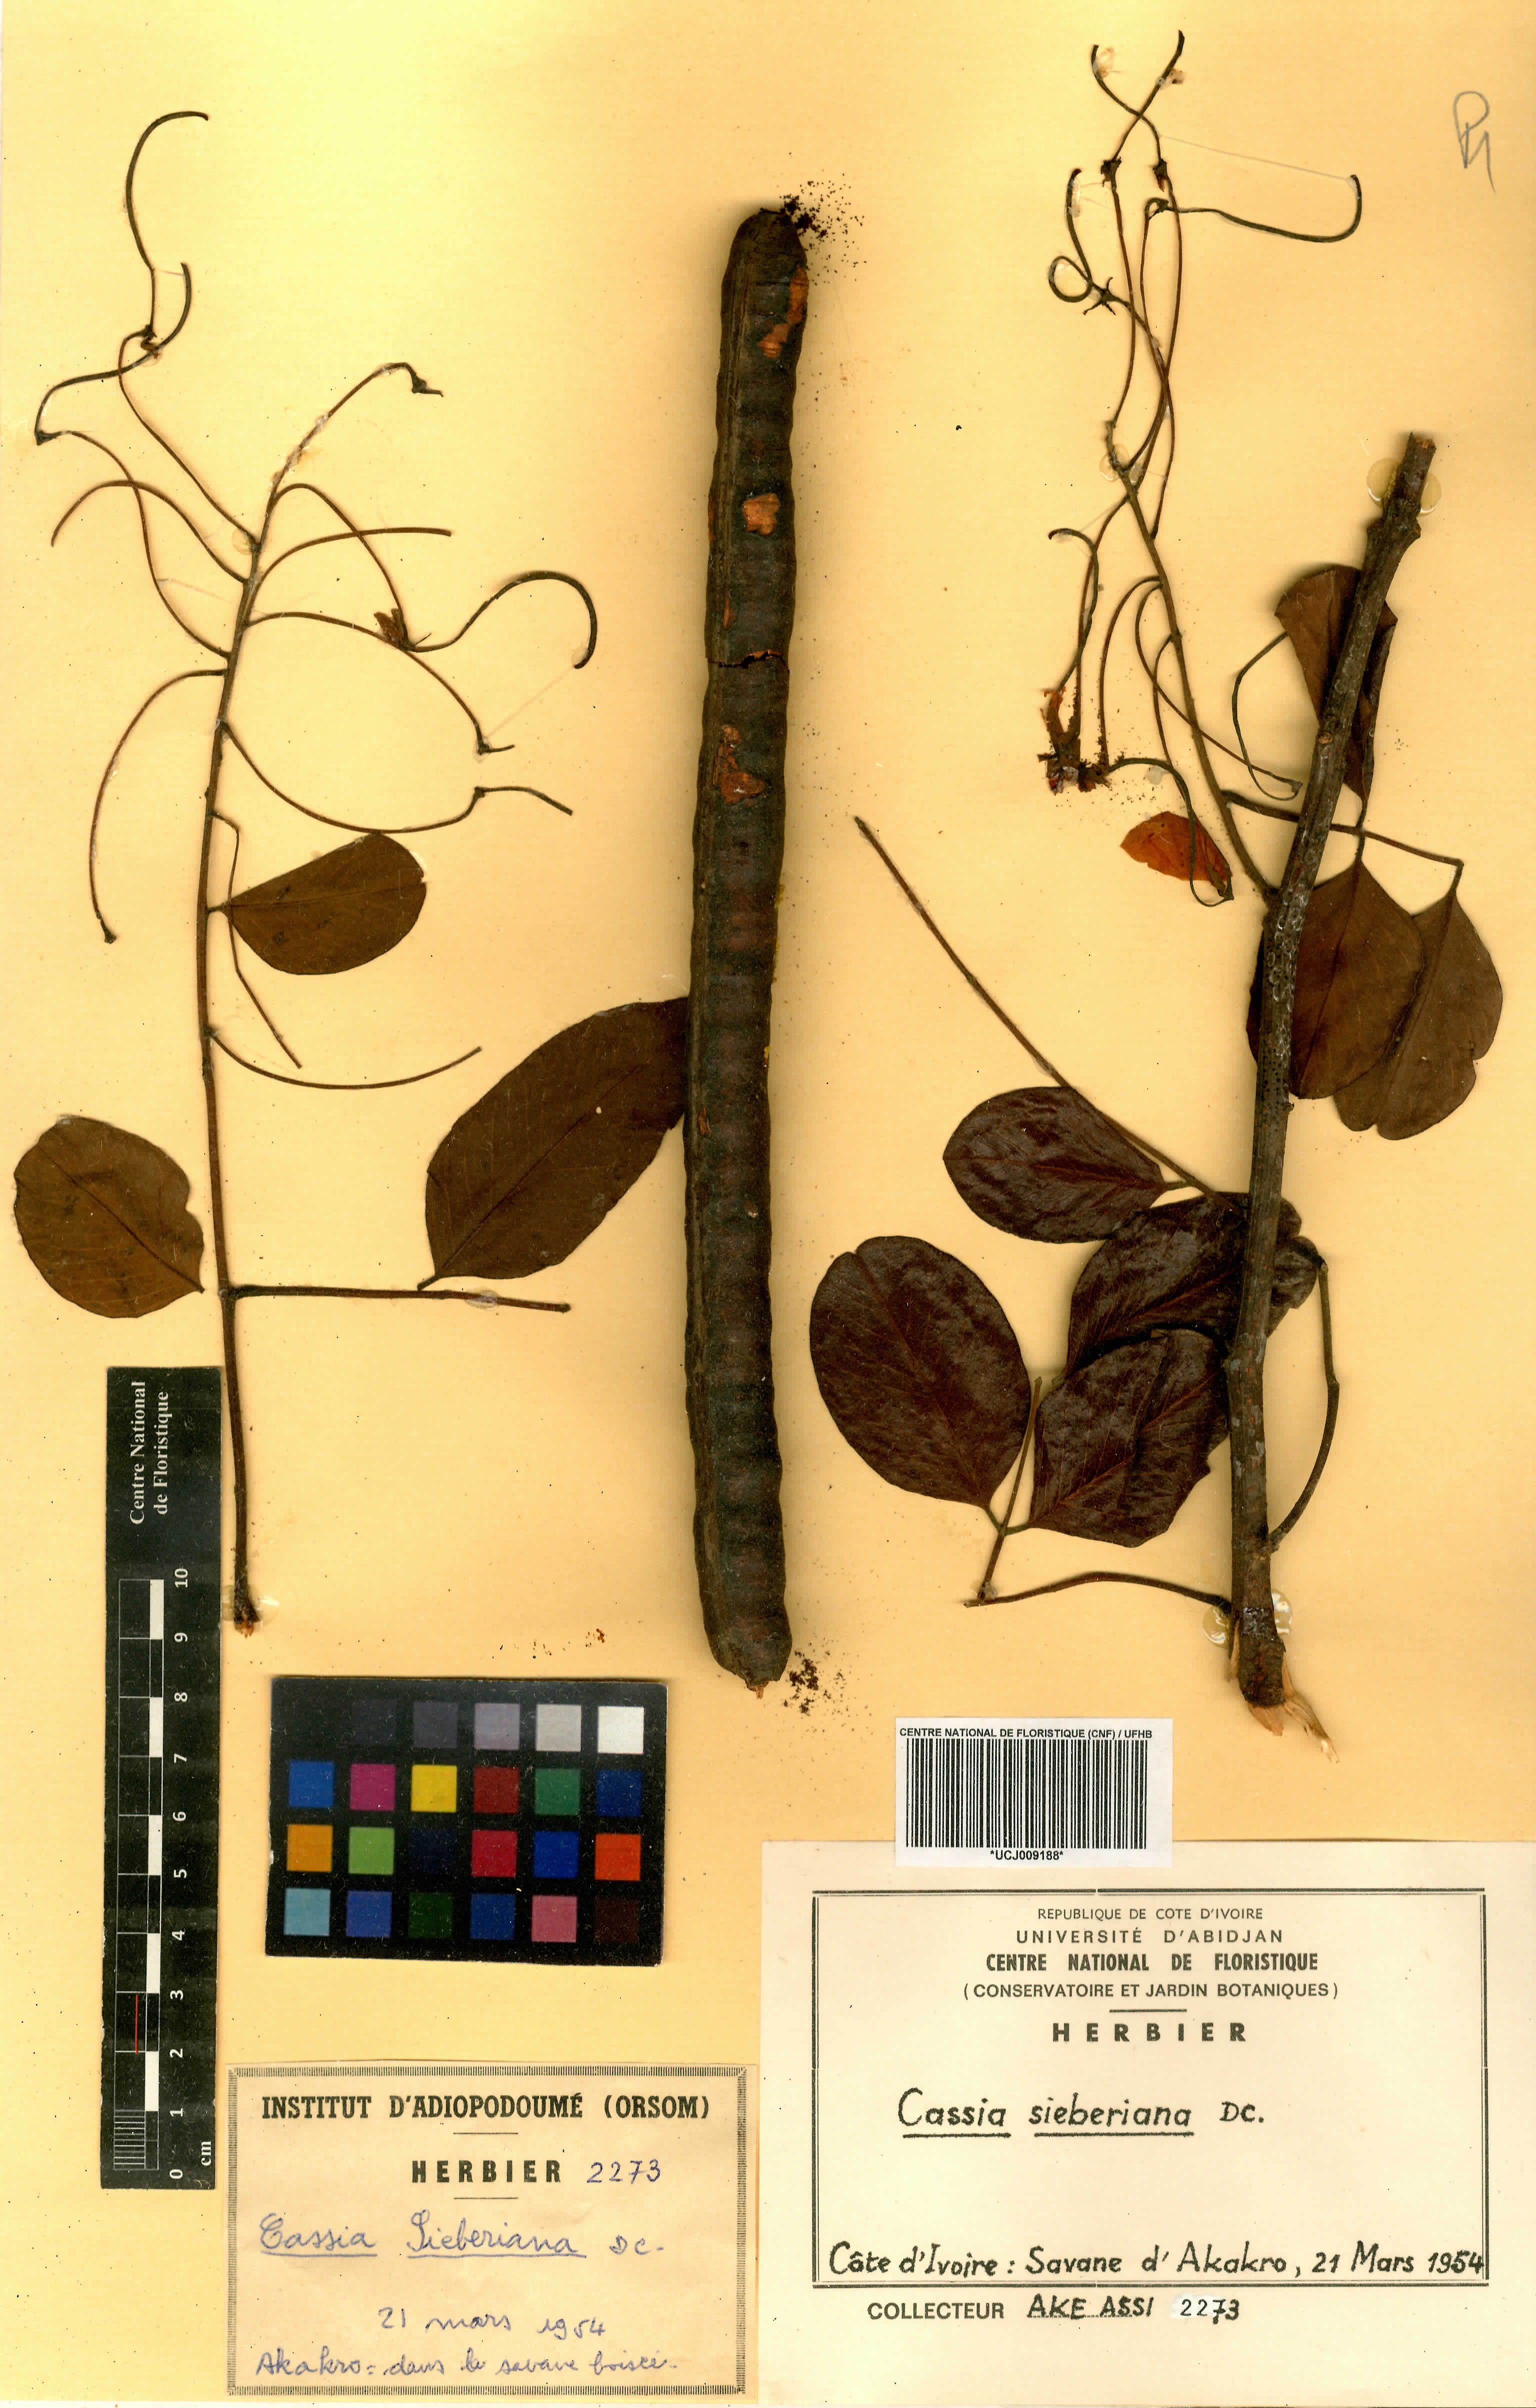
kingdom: Plantae
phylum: Tracheophyta
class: Magnoliopsida
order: Fabales
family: Fabaceae
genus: Cassia
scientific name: Cassia sieberiana
